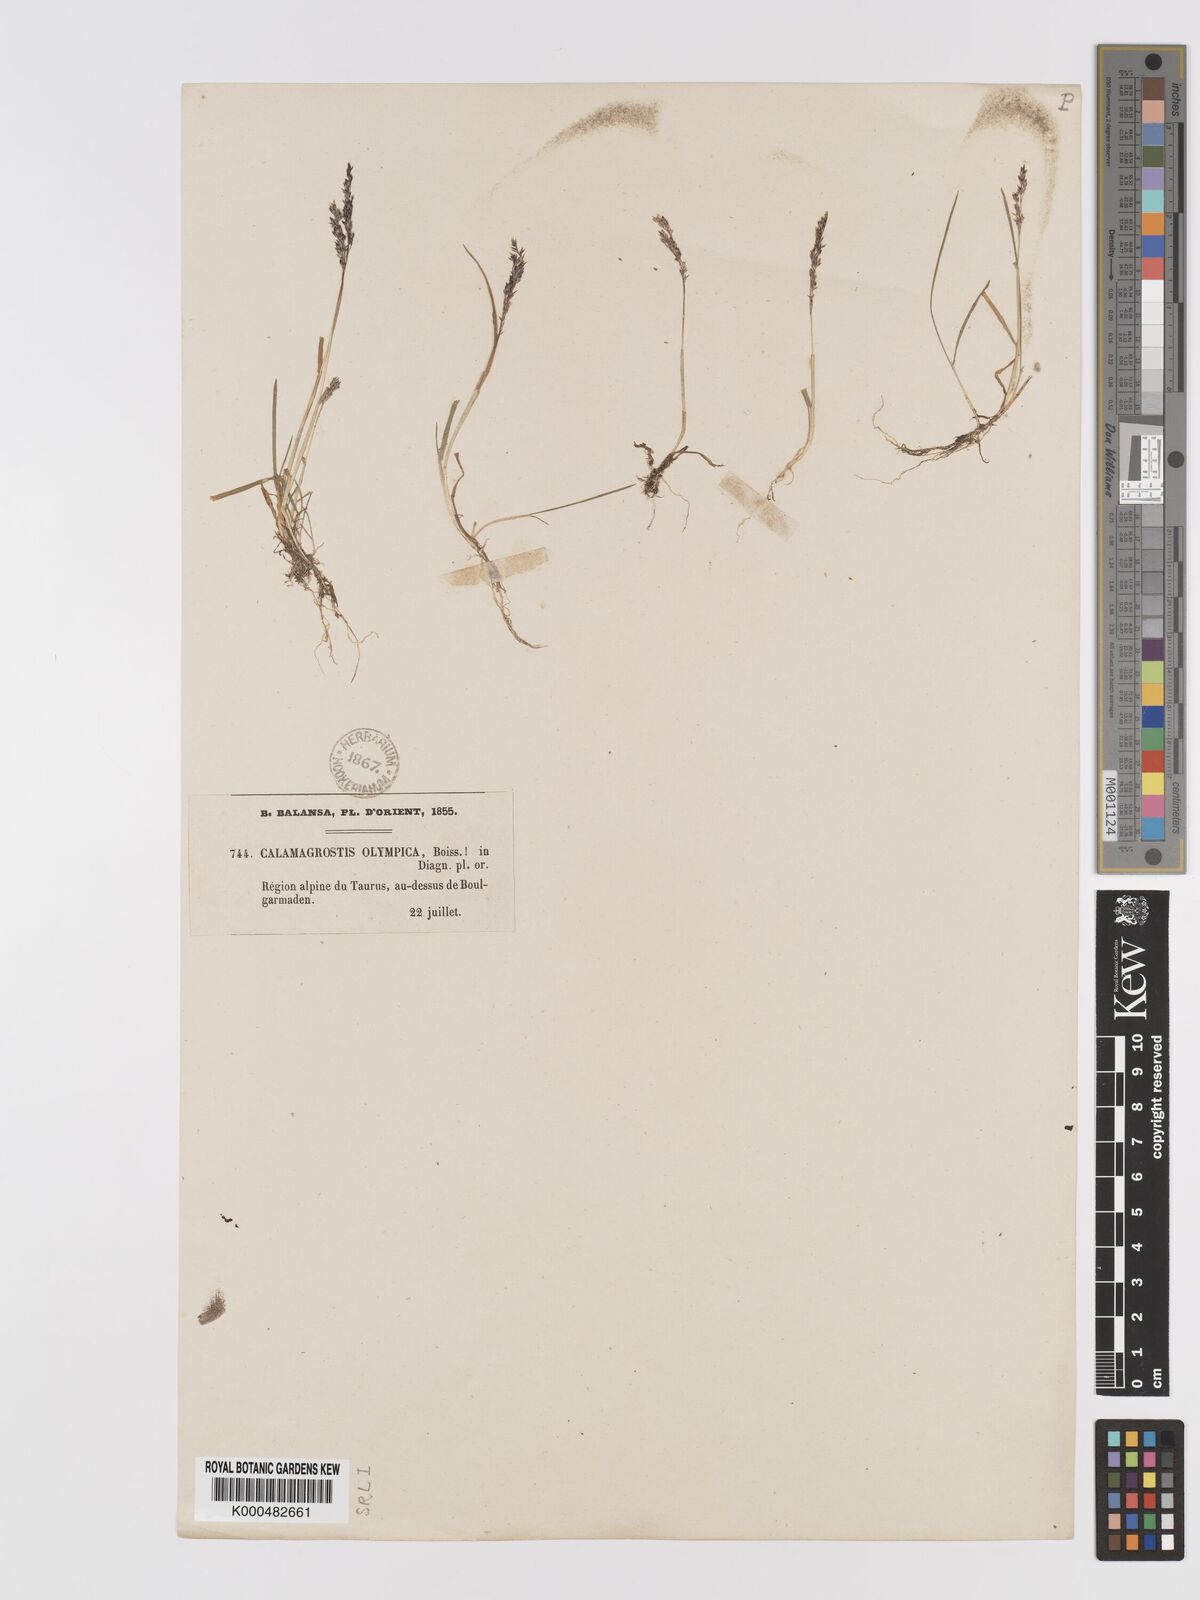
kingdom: Plantae
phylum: Tracheophyta
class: Liliopsida
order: Poales
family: Poaceae
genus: Agrostis
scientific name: Agrostis olympica
